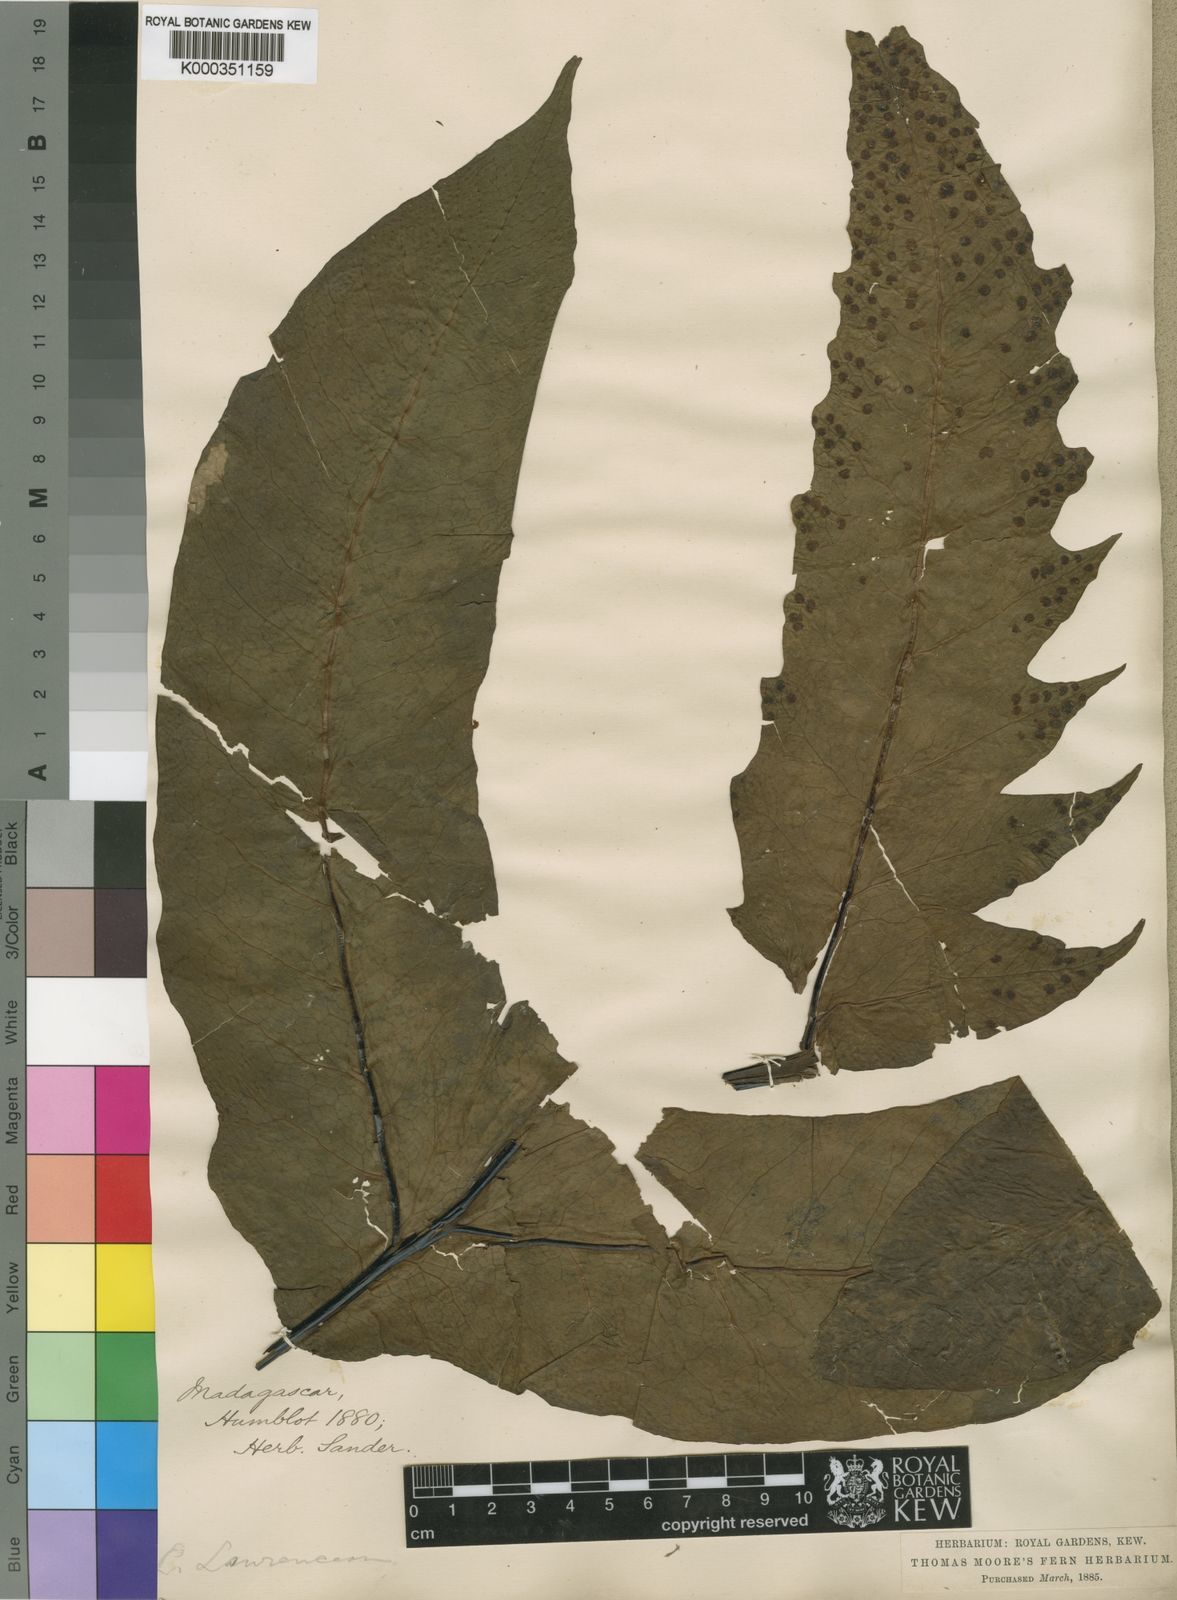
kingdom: Plantae
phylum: Tracheophyta
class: Polypodiopsida
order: Polypodiales
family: Tectariaceae
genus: Tectaria
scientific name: Tectaria lawrenceana
